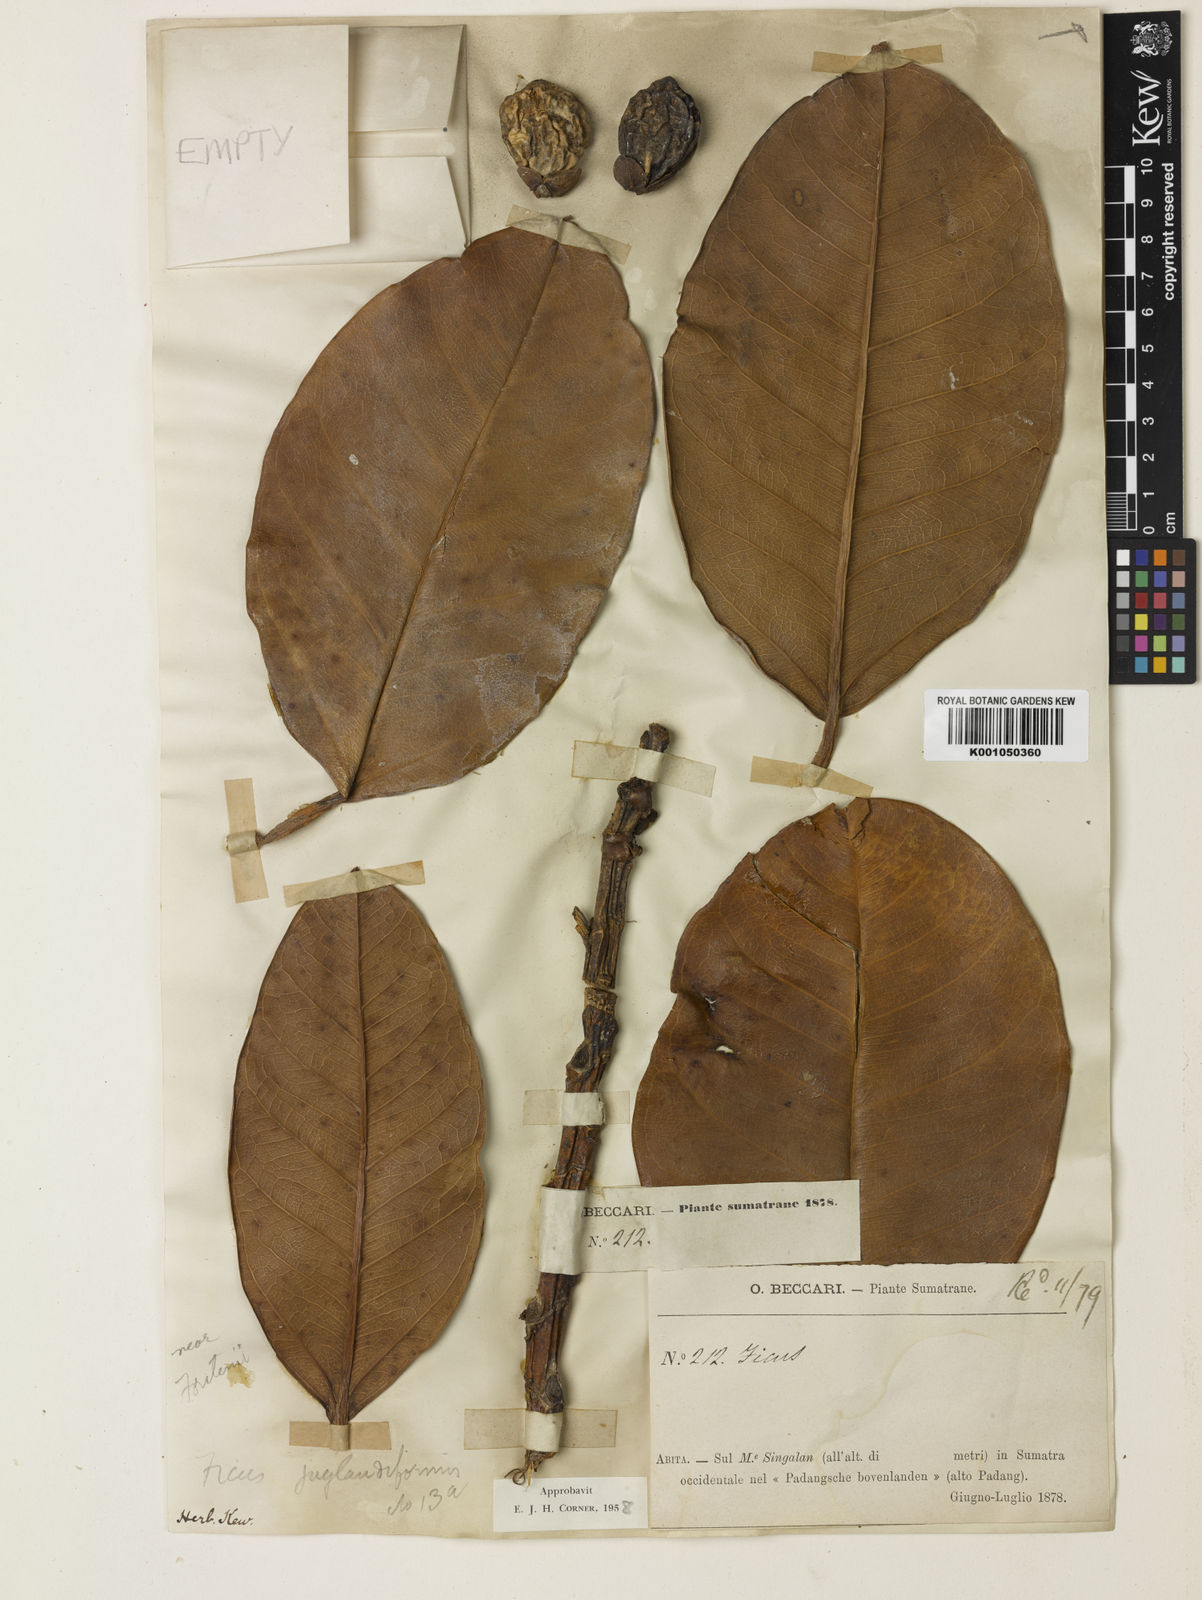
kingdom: Plantae
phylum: Tracheophyta
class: Magnoliopsida
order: Rosales
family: Moraceae
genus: Ficus
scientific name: Ficus juglandiformis
